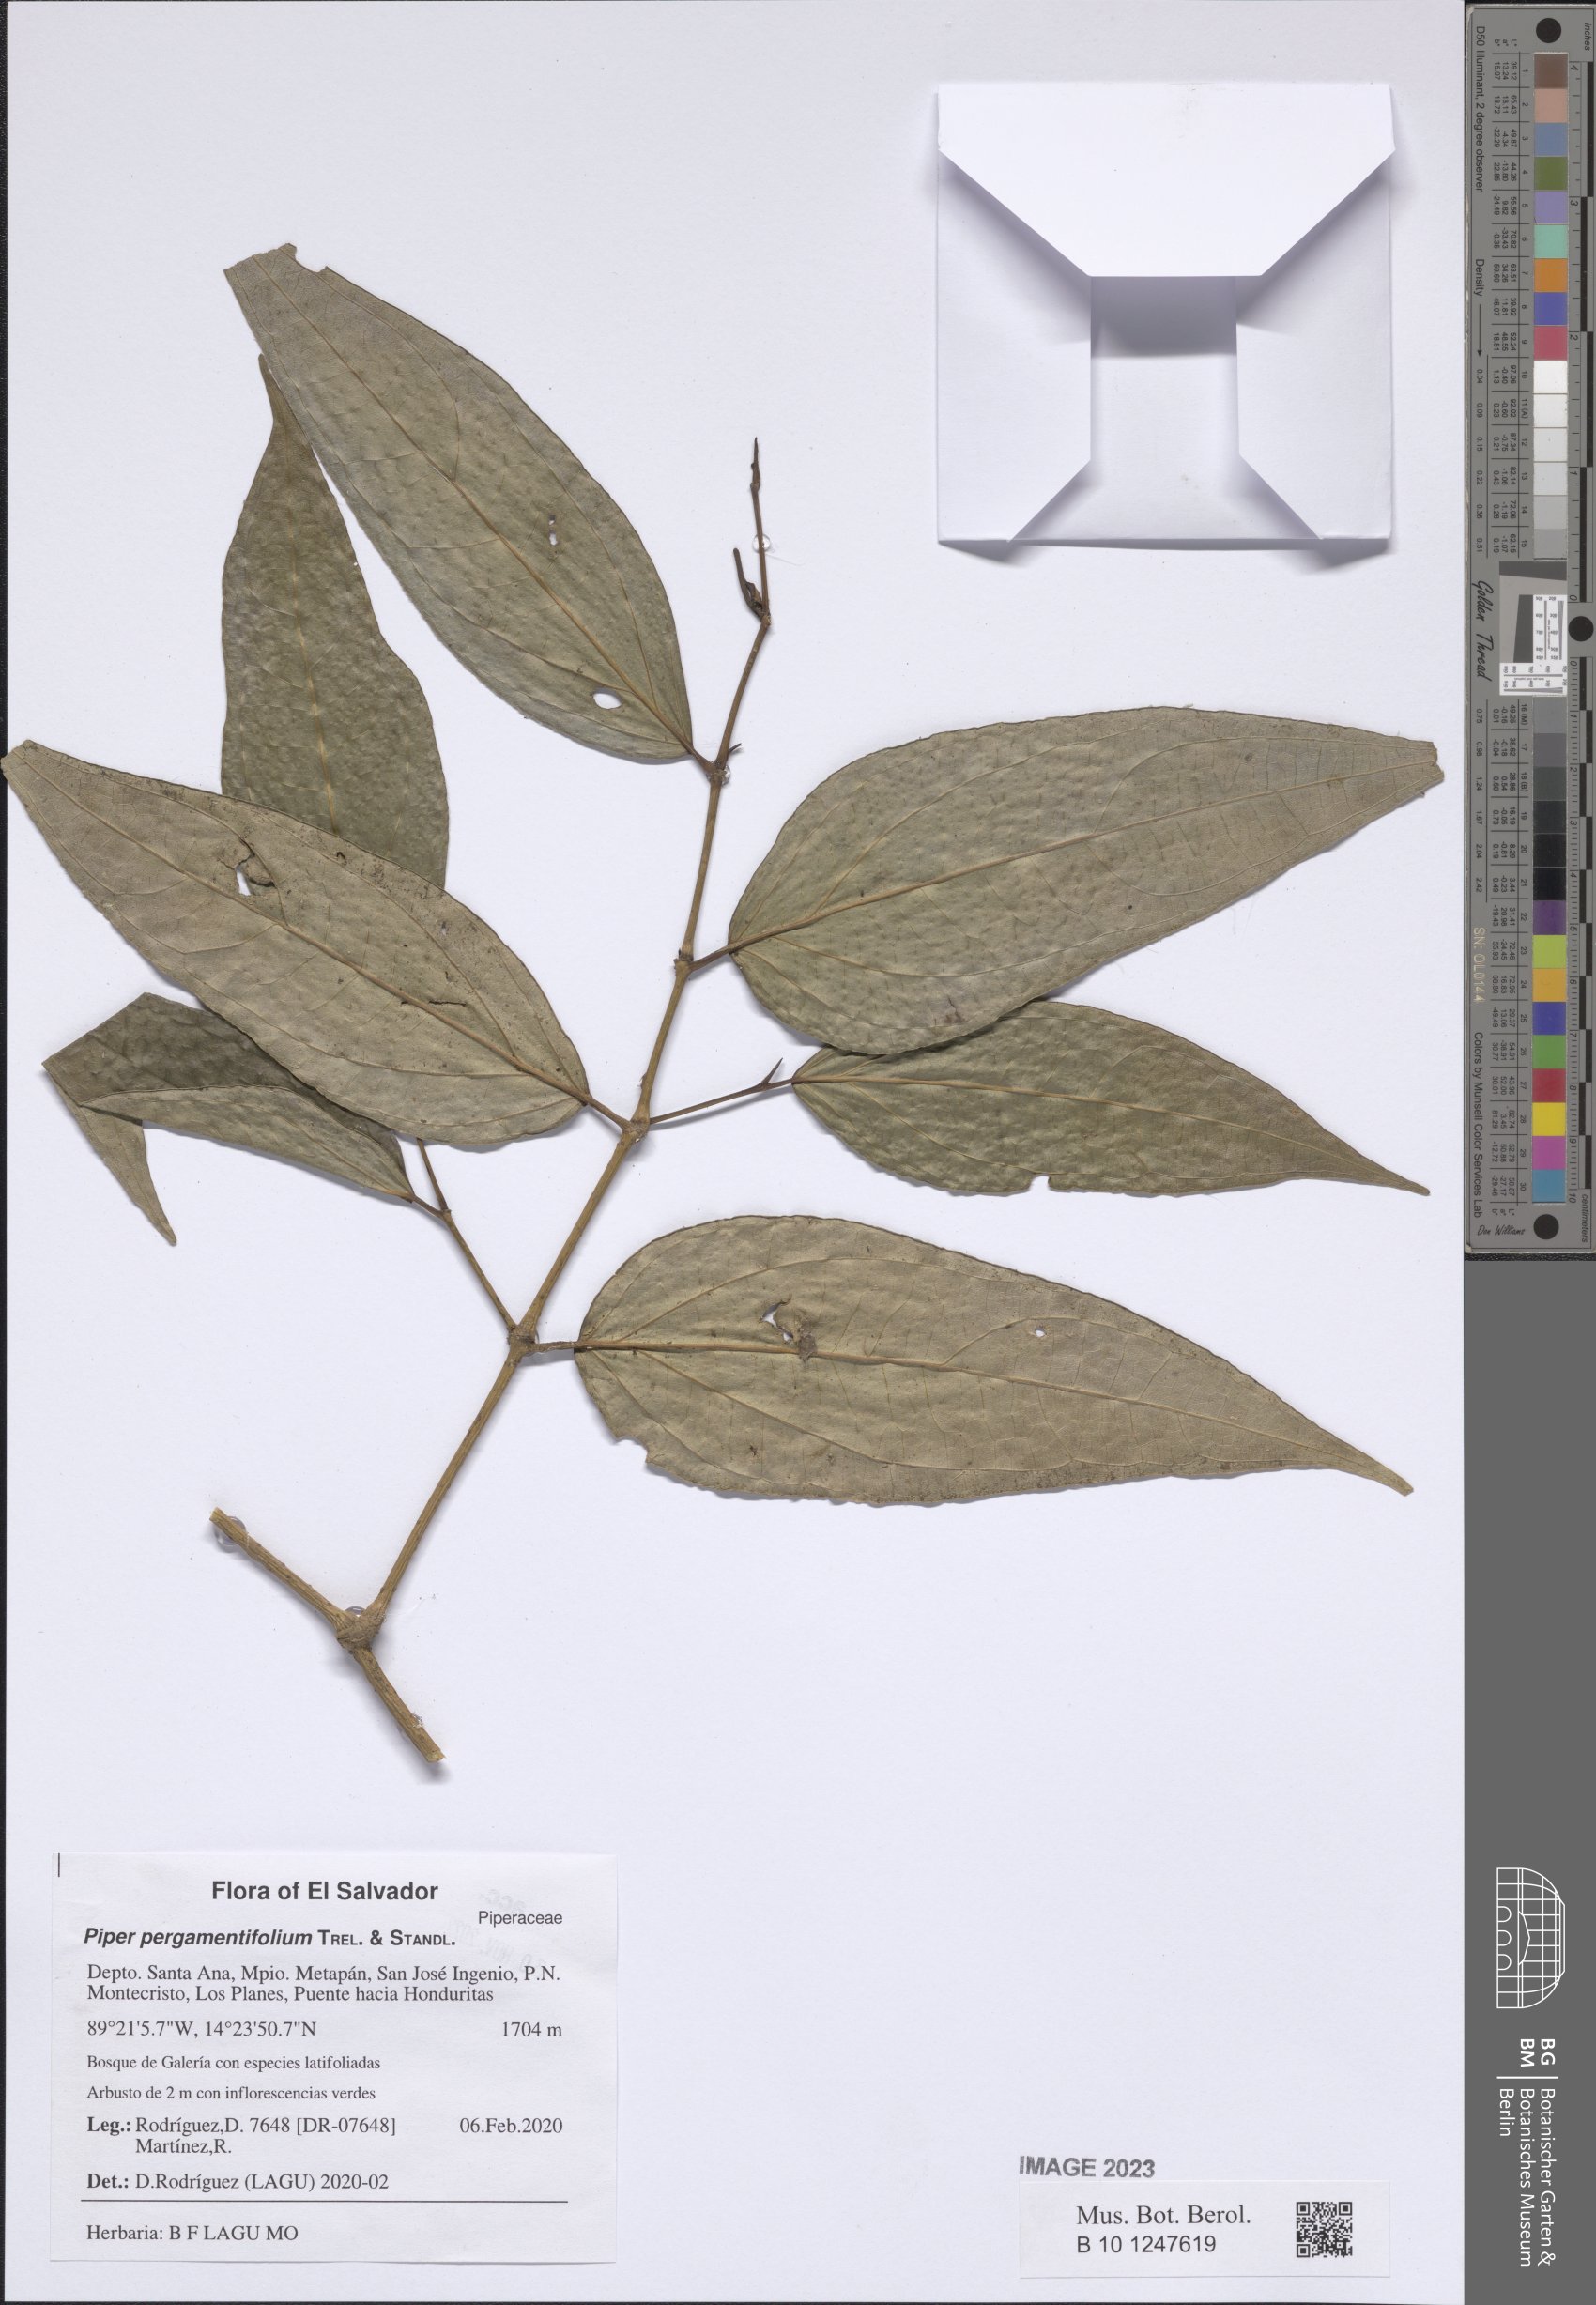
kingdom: Plantae
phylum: Tracheophyta
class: Magnoliopsida
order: Piperales
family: Piperaceae
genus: Piper
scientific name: Piper pergamentifolium
